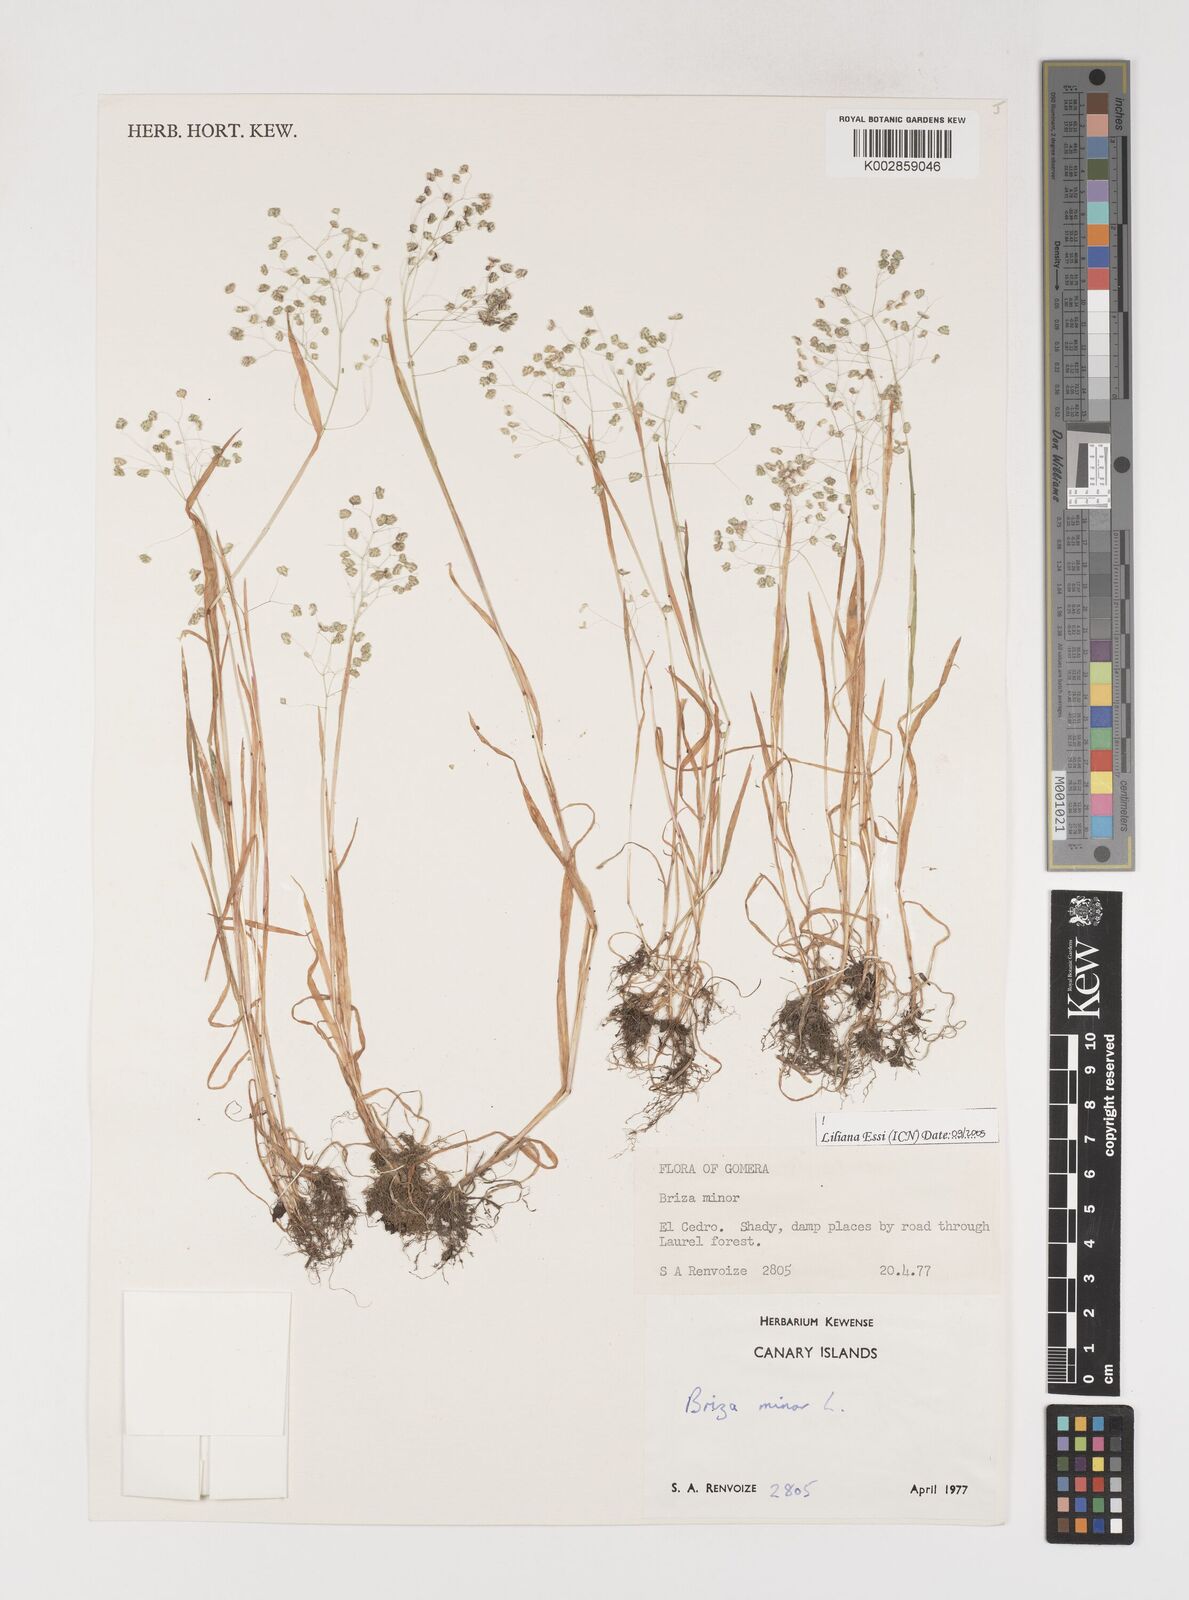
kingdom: Plantae
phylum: Tracheophyta
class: Liliopsida
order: Poales
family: Poaceae
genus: Briza
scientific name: Briza minor
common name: Lesser quaking-grass
